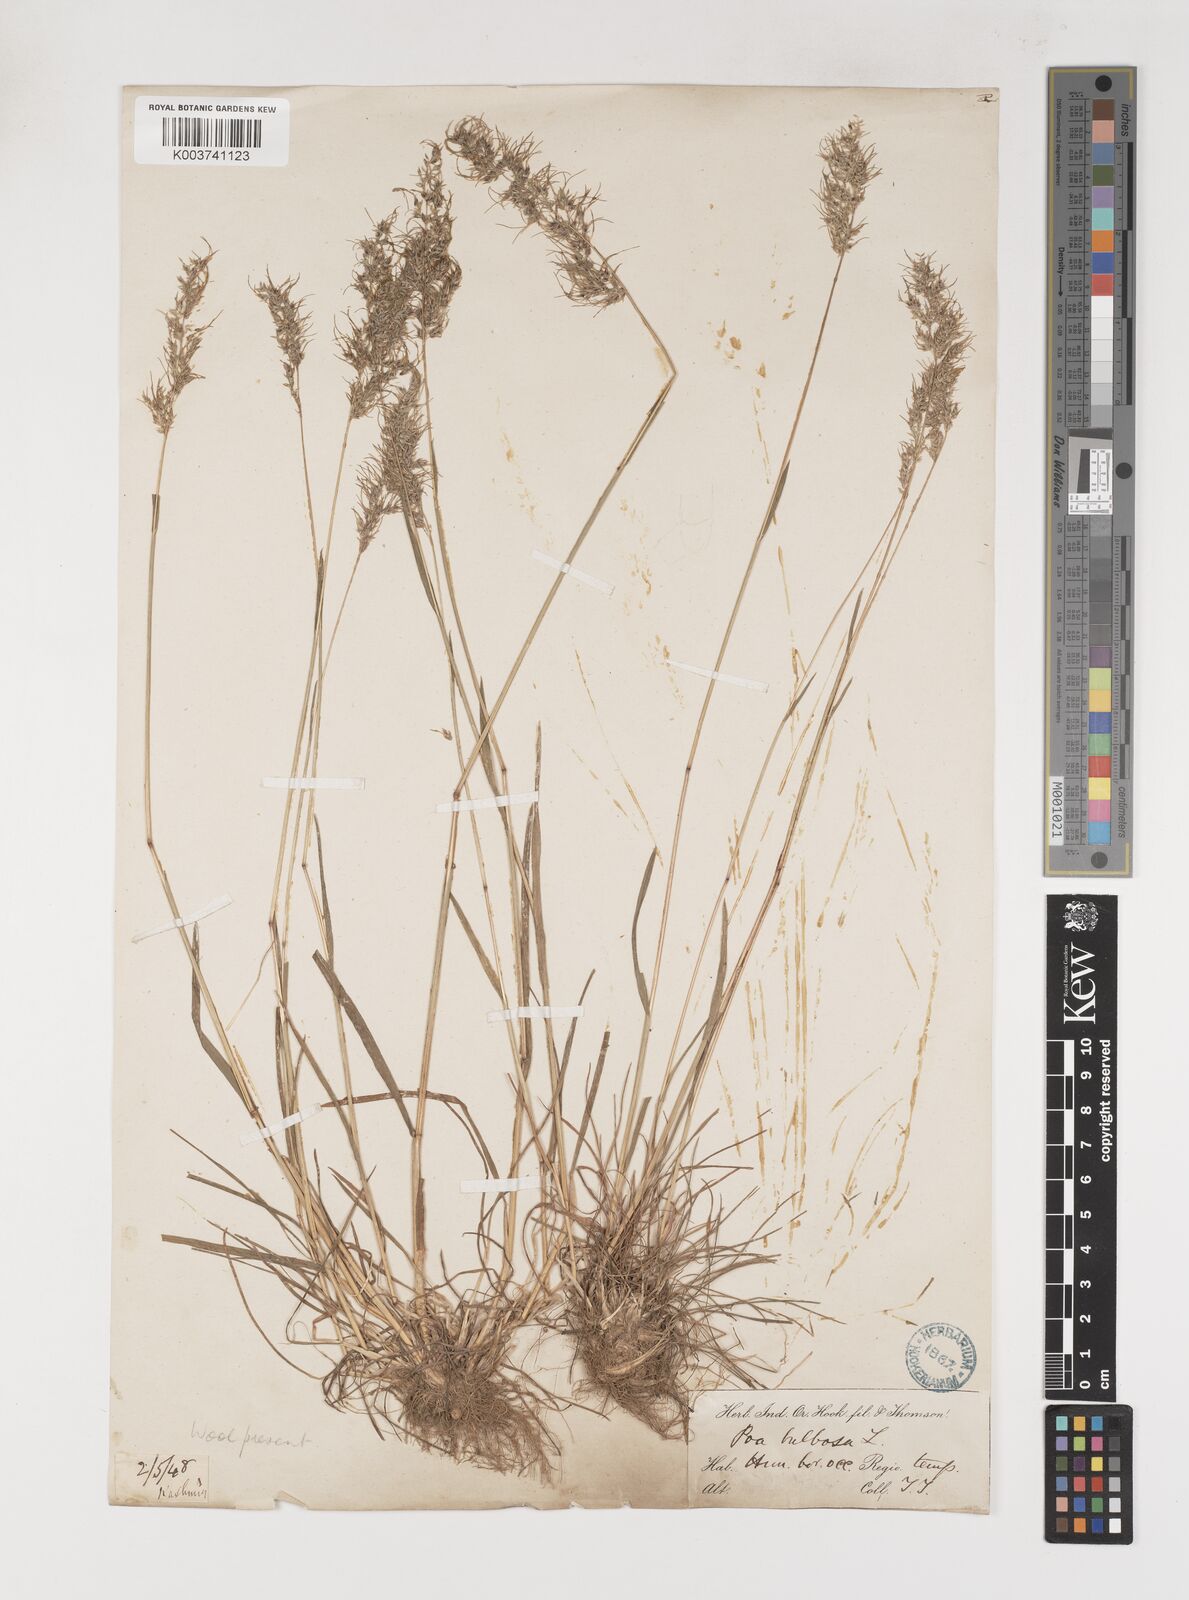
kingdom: Plantae
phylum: Tracheophyta
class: Liliopsida
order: Poales
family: Poaceae
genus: Poa
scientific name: Poa bulbosa
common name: Bulbous bluegrass
